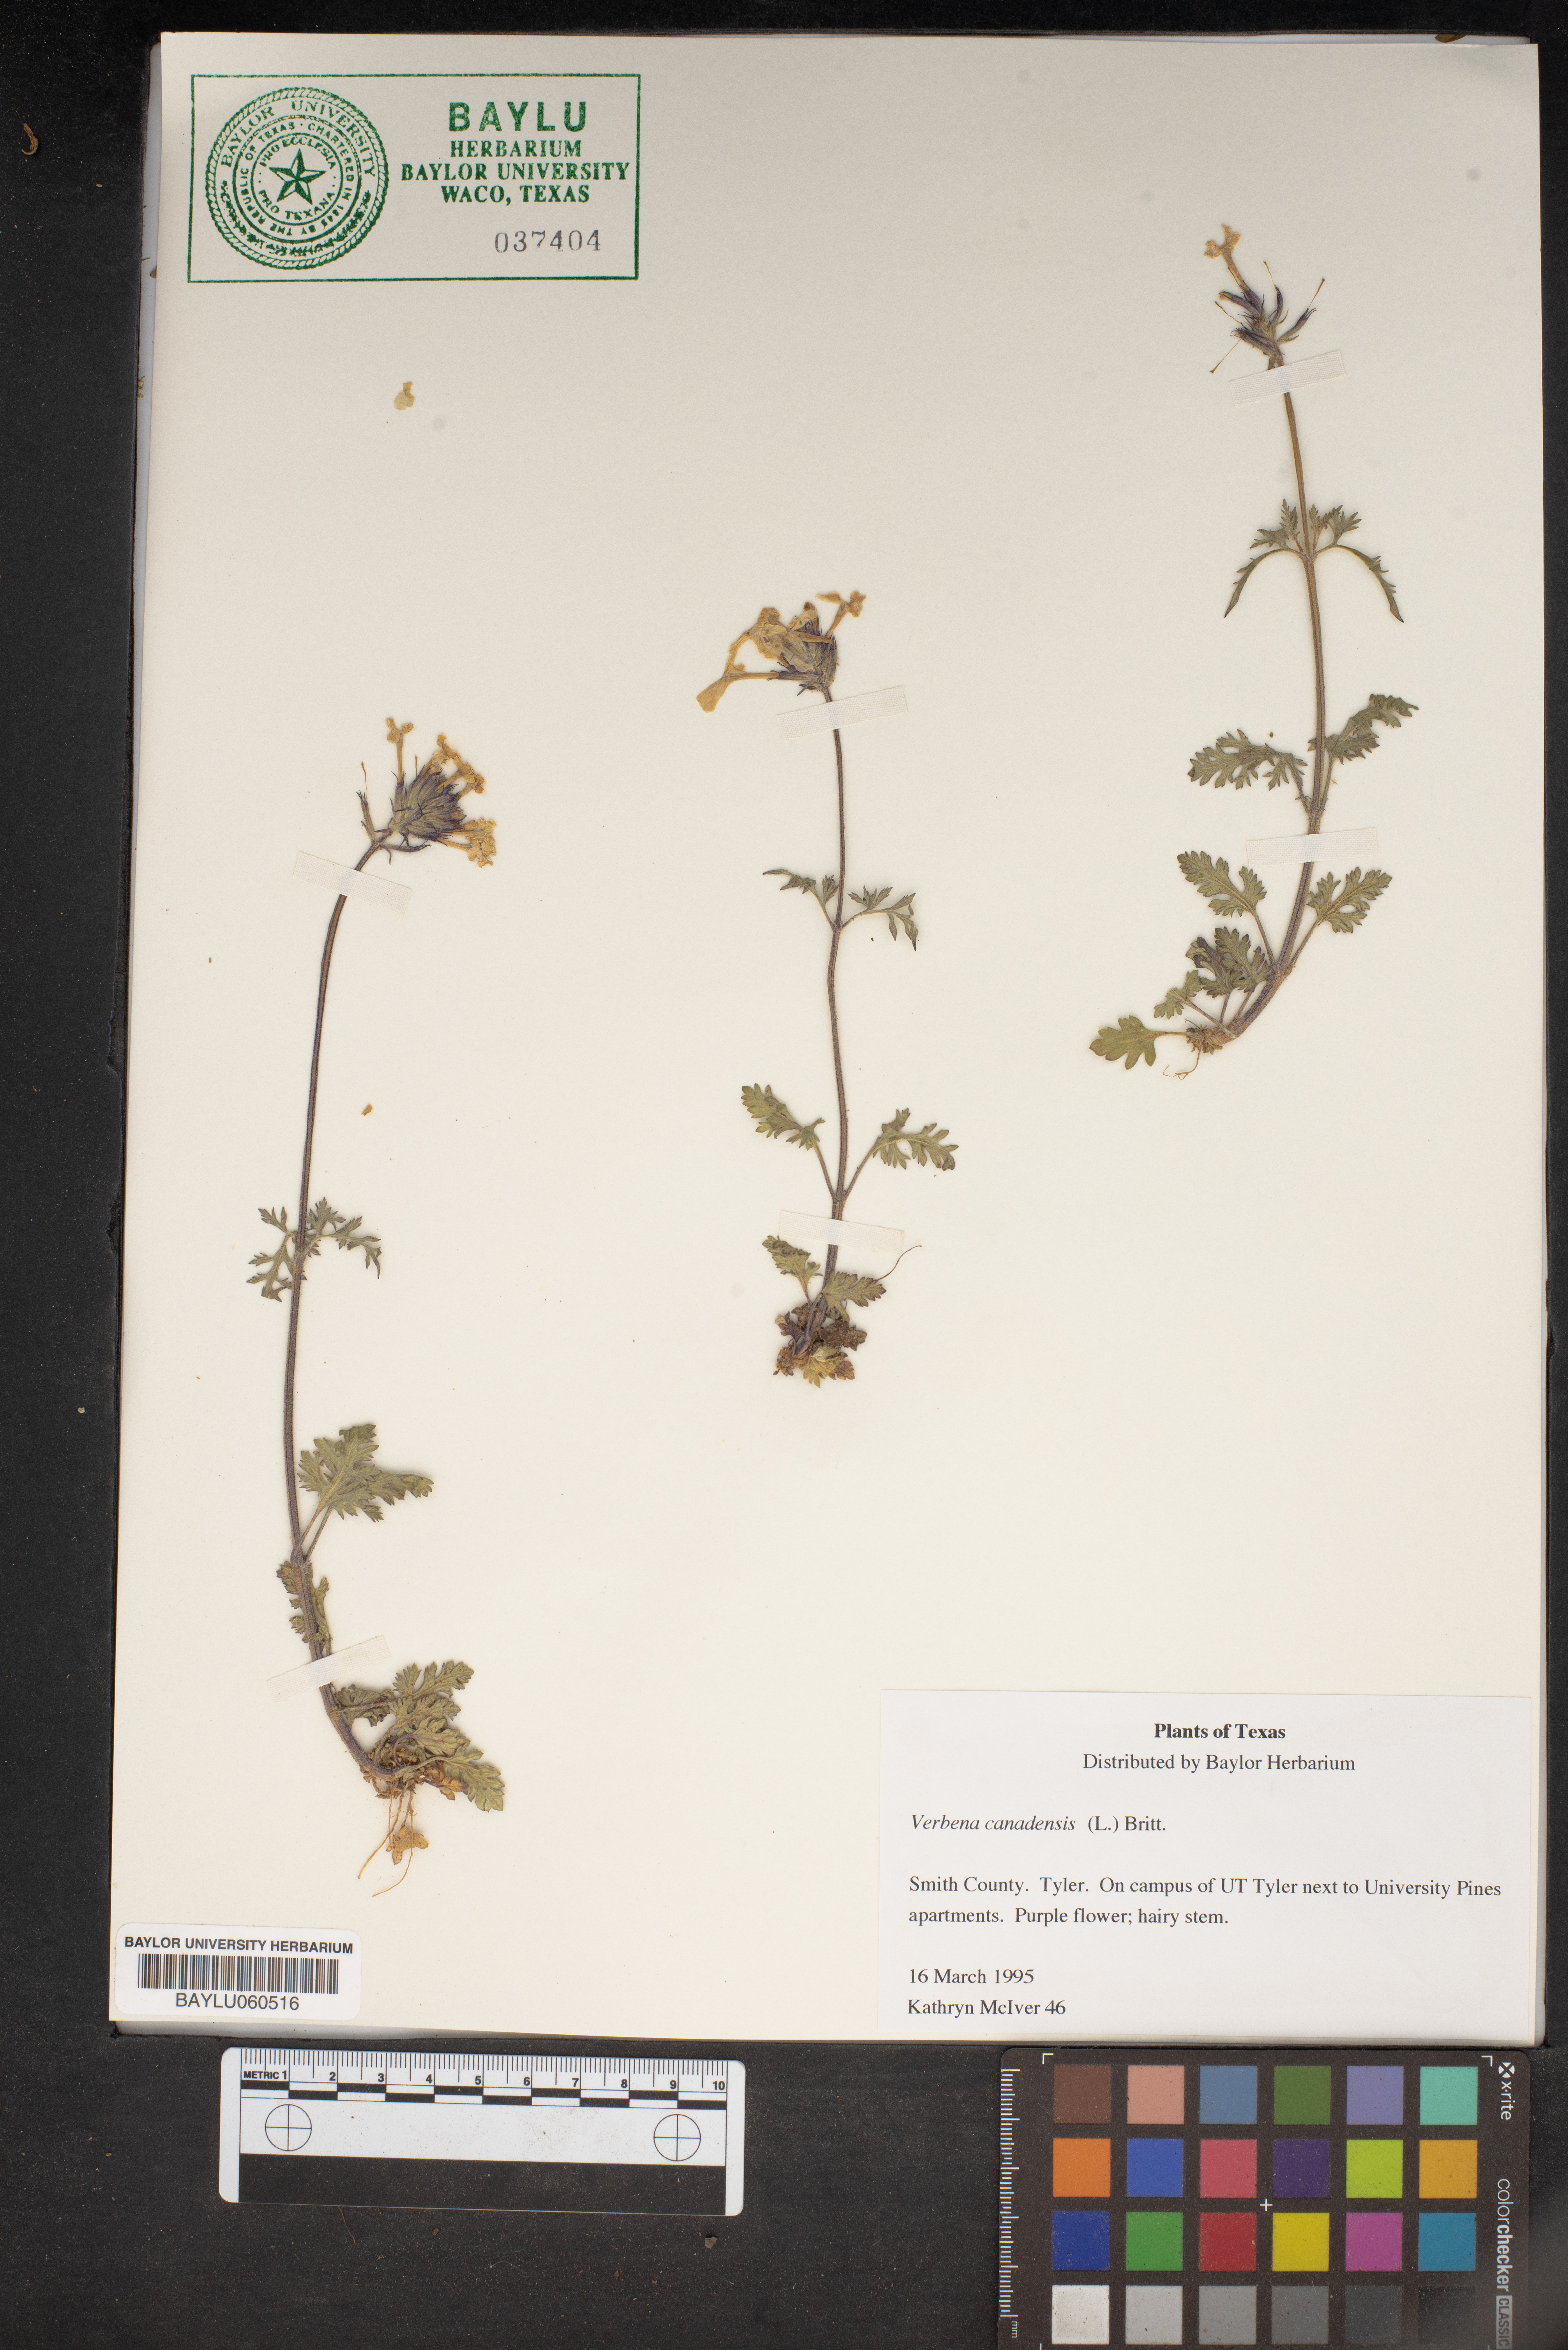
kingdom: Plantae
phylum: Tracheophyta
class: Magnoliopsida
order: Lamiales
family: Verbenaceae
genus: Verbena
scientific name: Verbena canadensis
